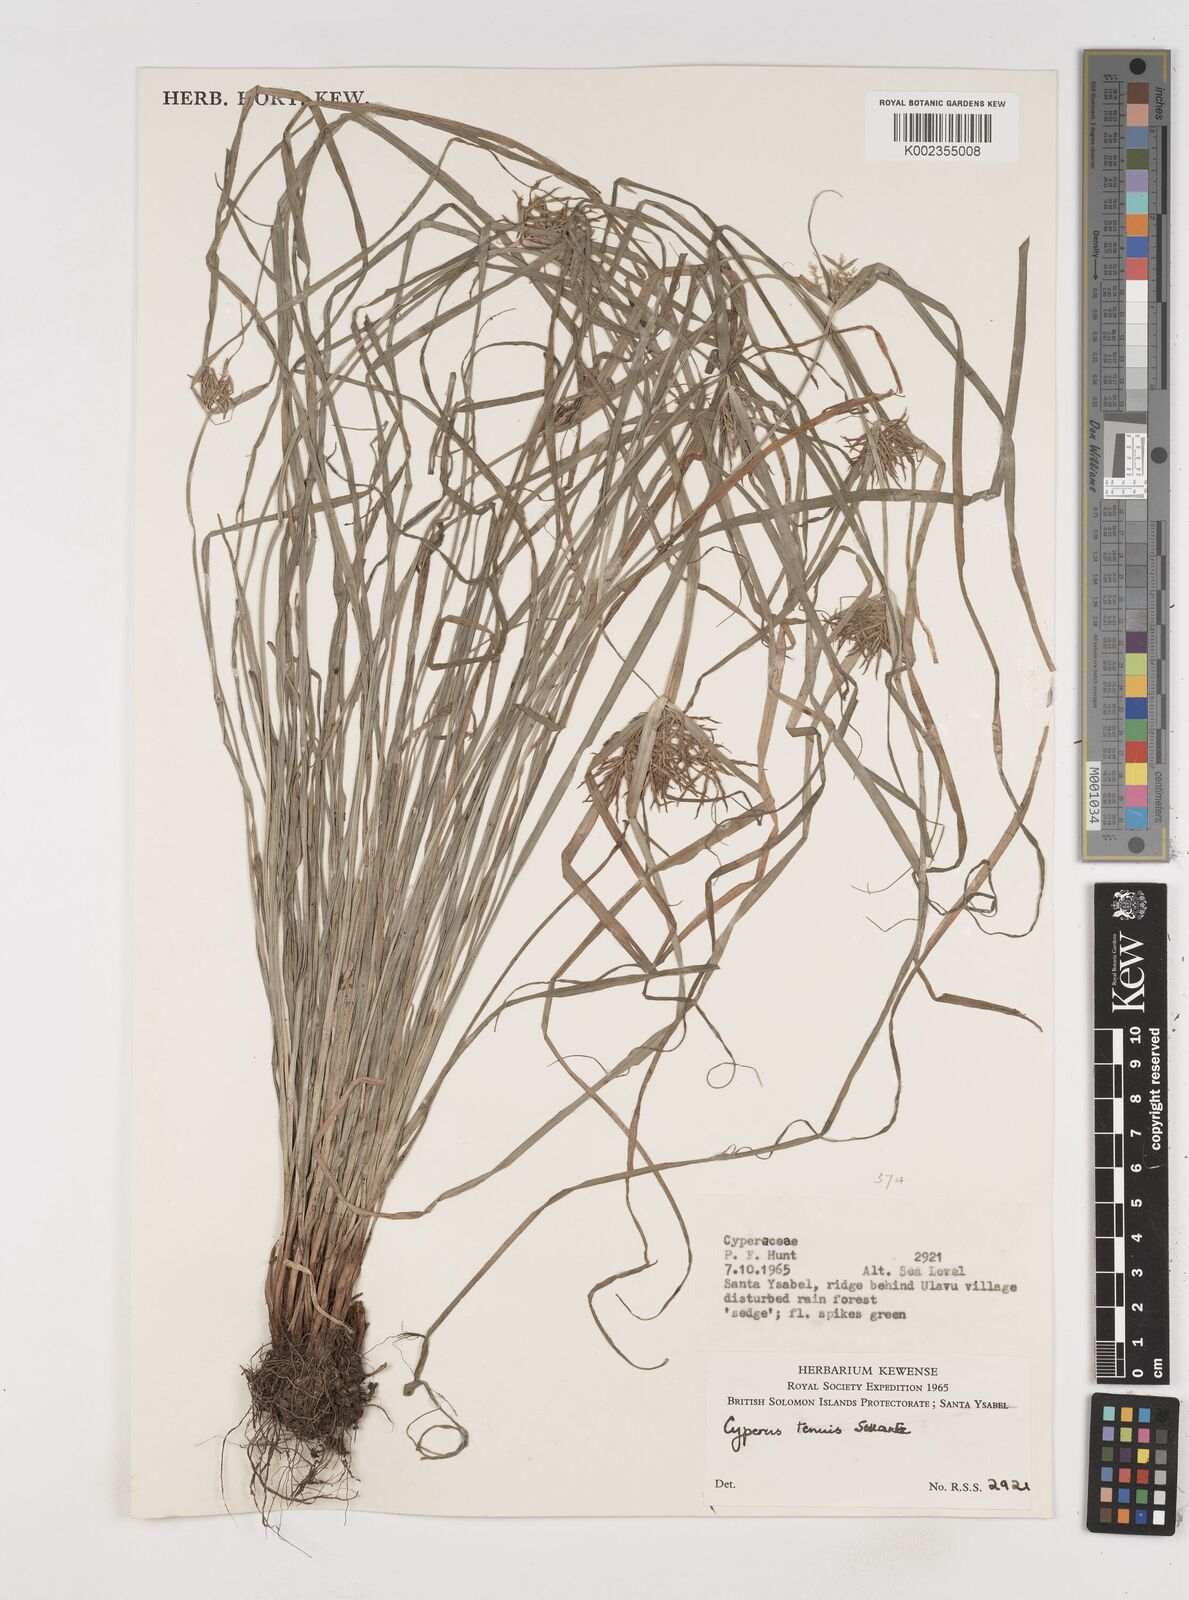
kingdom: Plantae
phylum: Tracheophyta
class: Liliopsida
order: Poales
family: Cyperaceae
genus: Cyperus
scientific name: Cyperus tenuis
